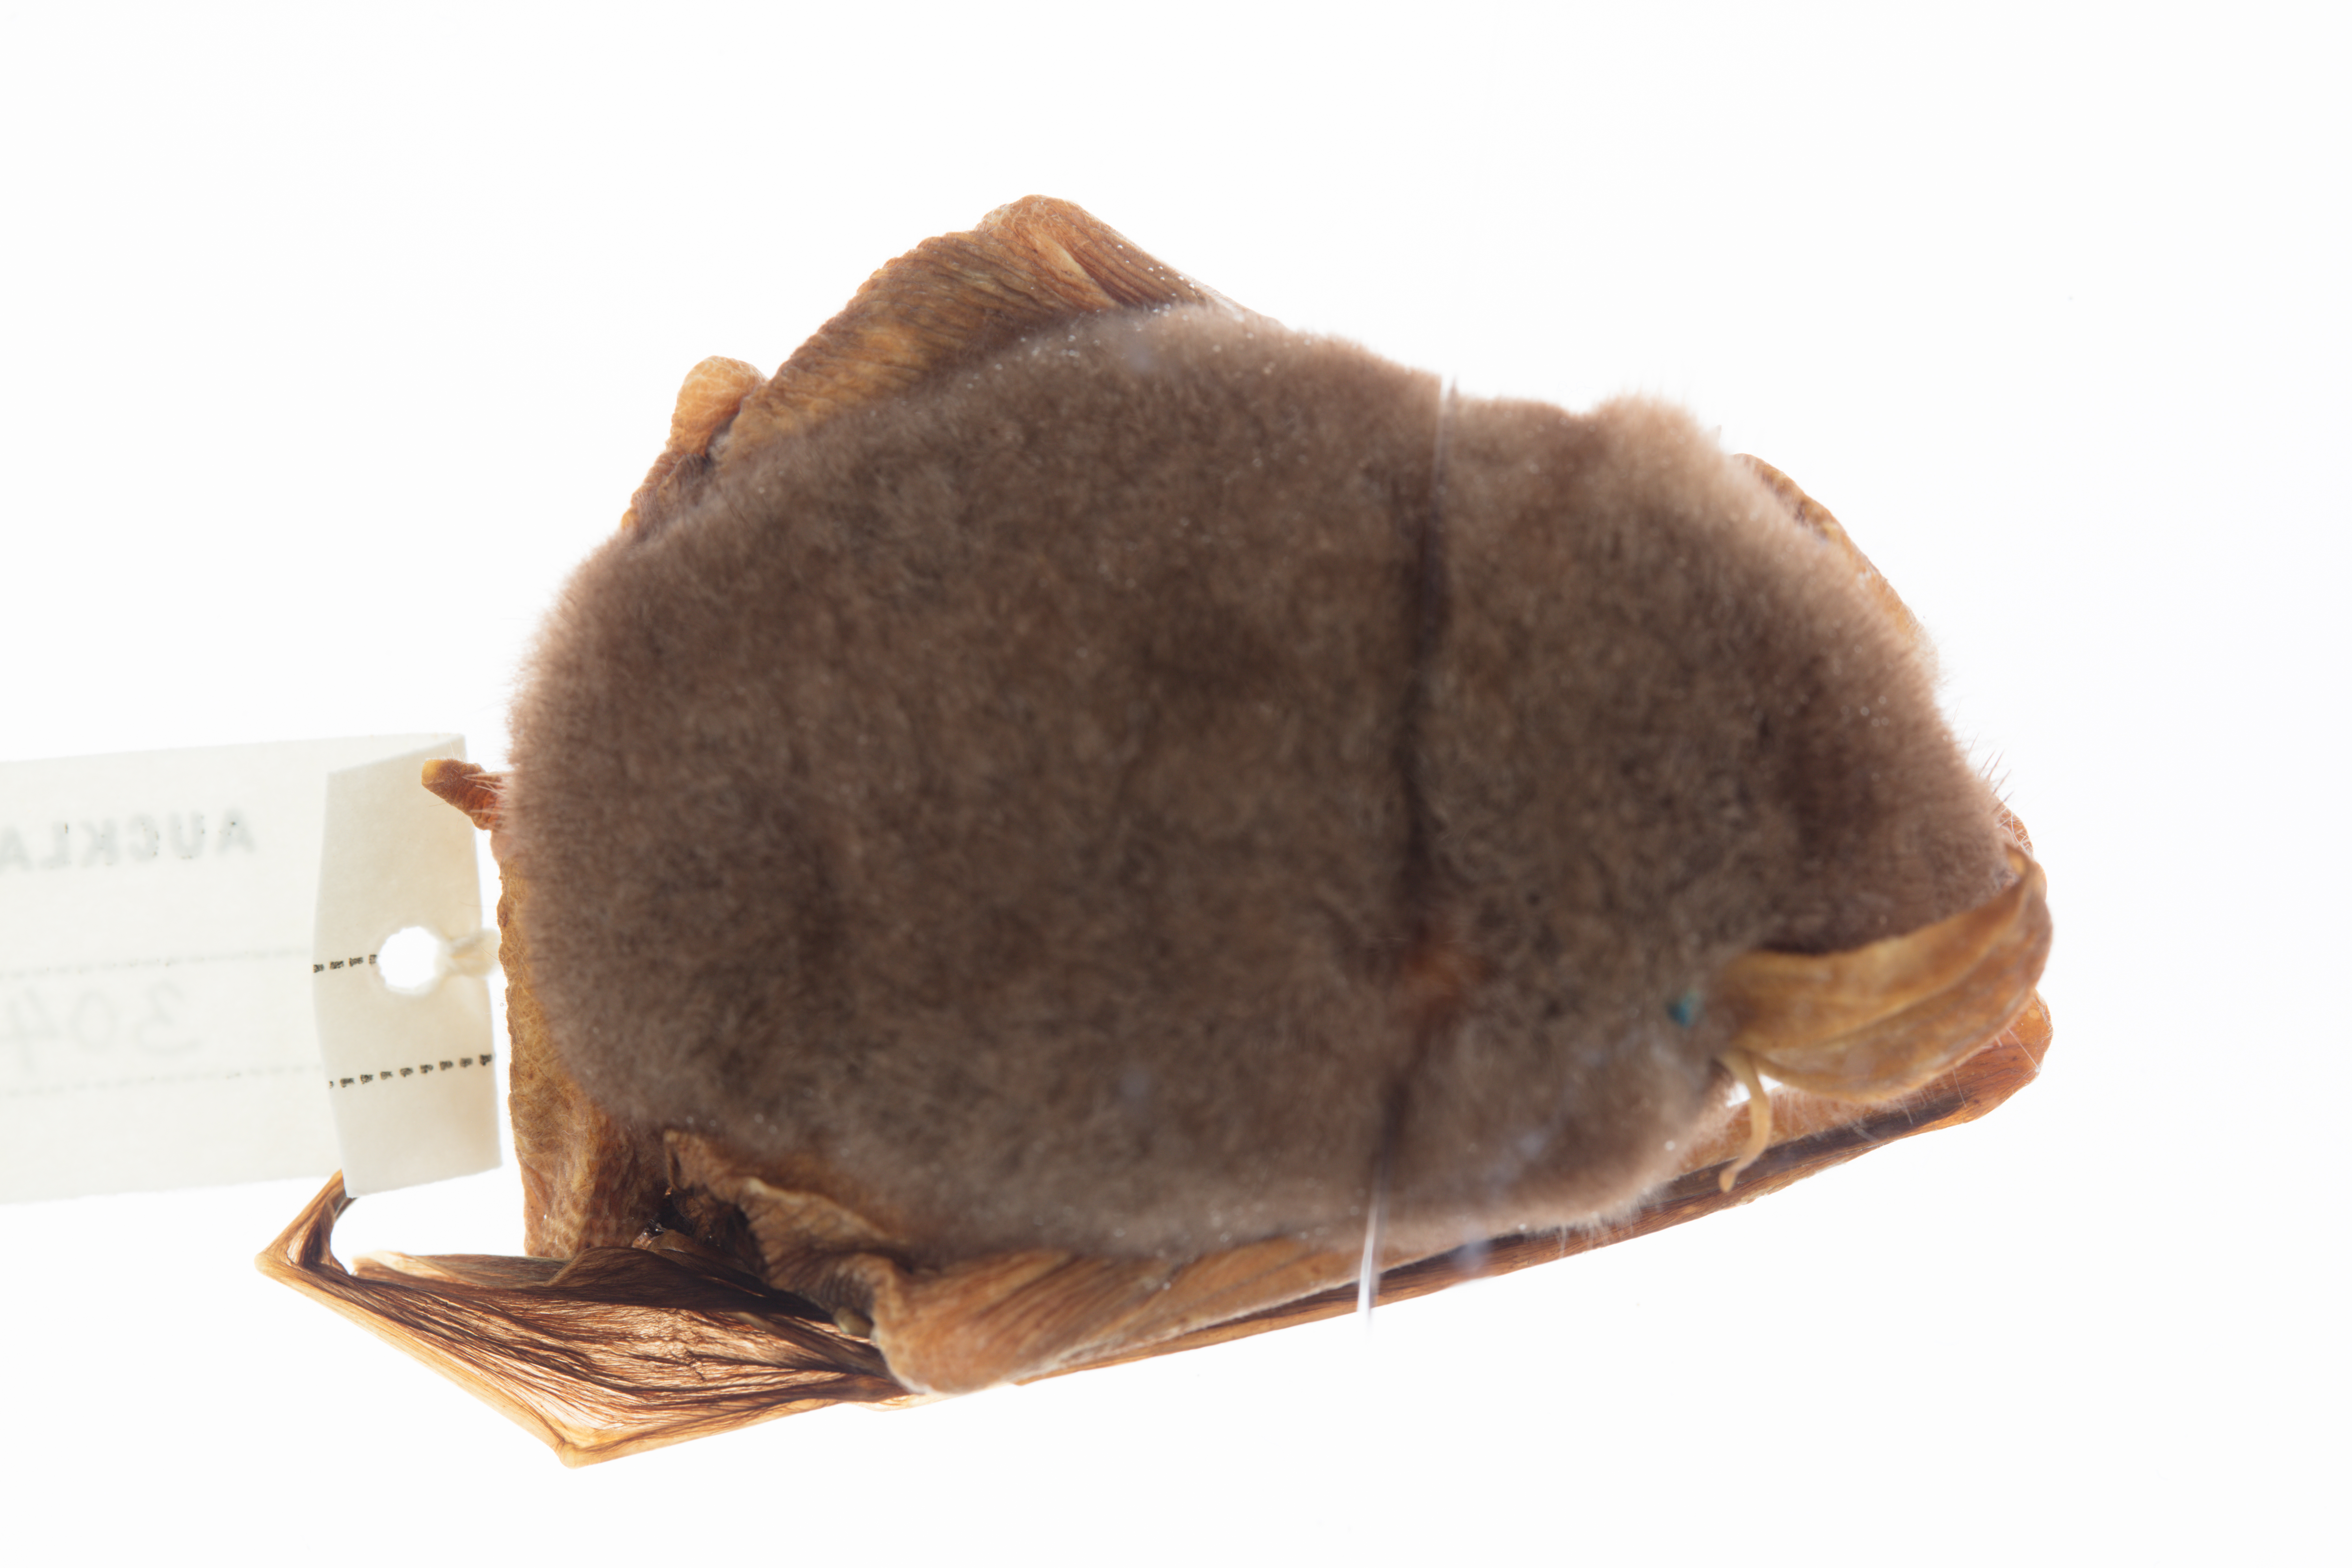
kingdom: Animalia
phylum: Chordata
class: Mammalia
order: Chiroptera
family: Mystacinidae
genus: Mystacina
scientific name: Mystacina tuberculata
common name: New zealand lesser short-tailed bat
